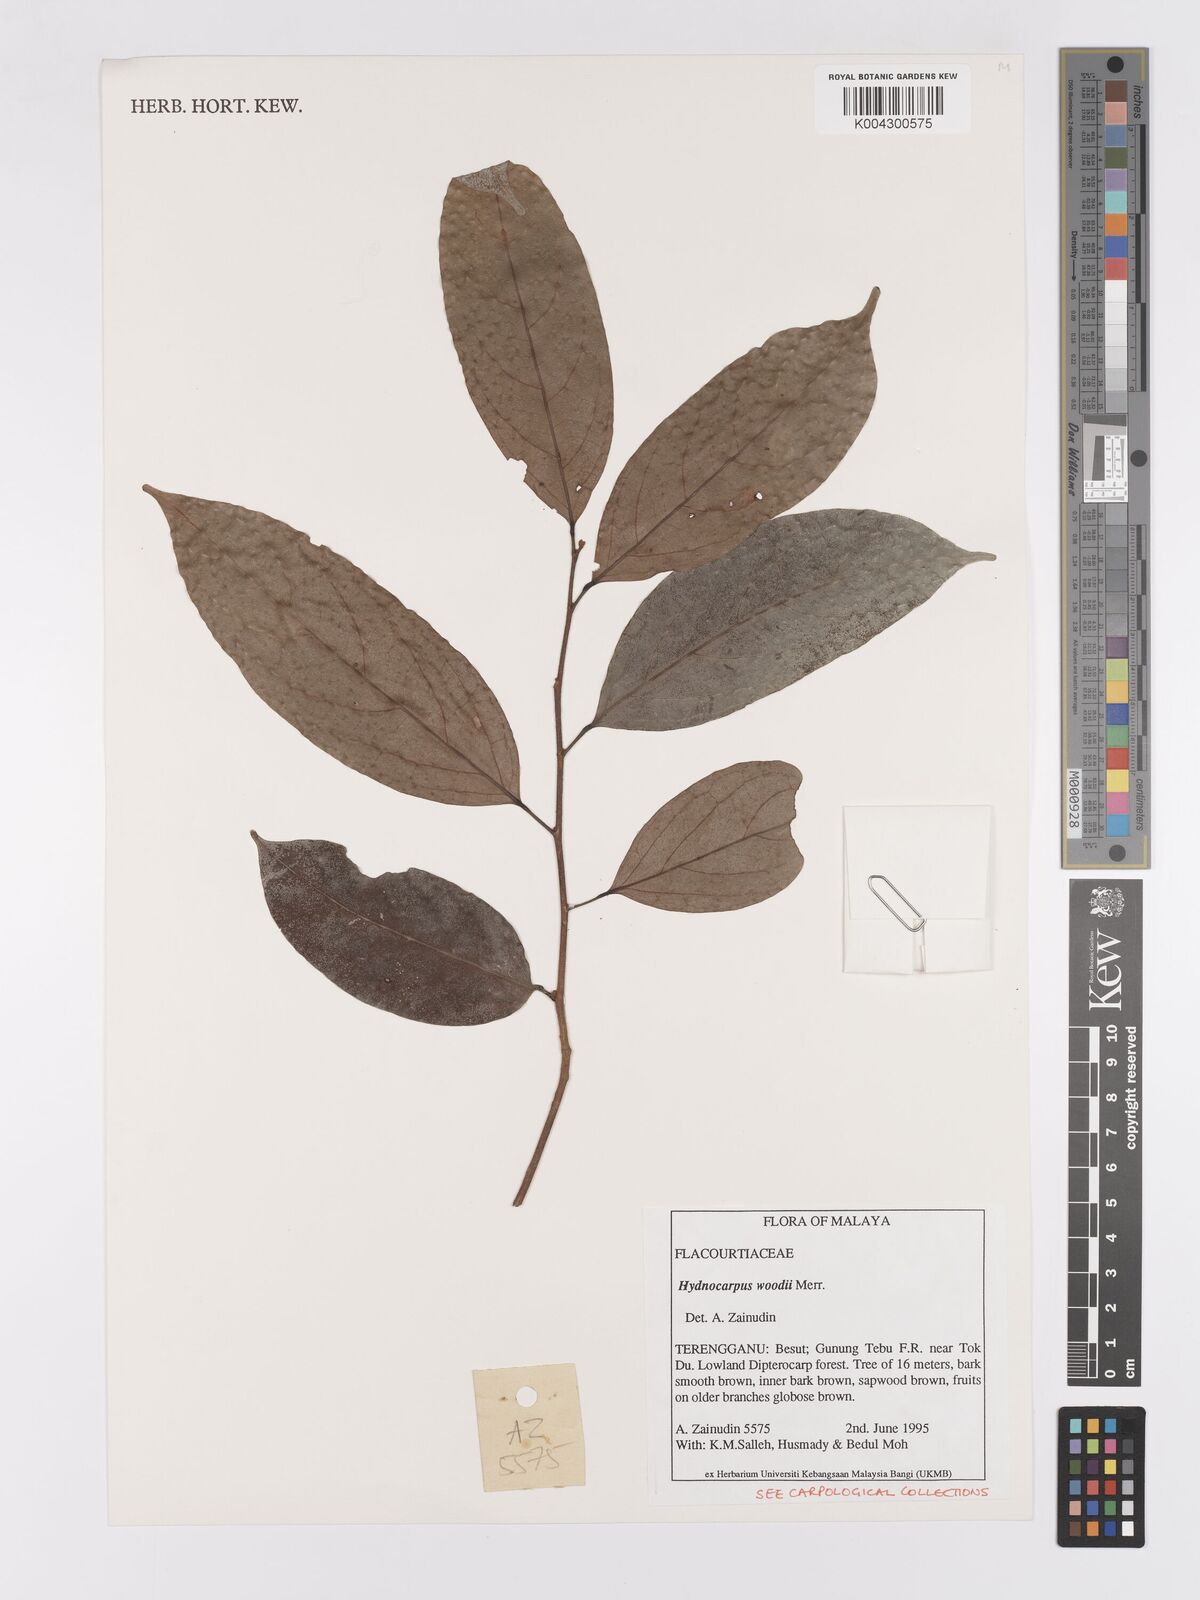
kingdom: Plantae
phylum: Tracheophyta
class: Magnoliopsida
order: Malpighiales
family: Achariaceae
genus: Hydnocarpus
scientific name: Hydnocarpus woodii
